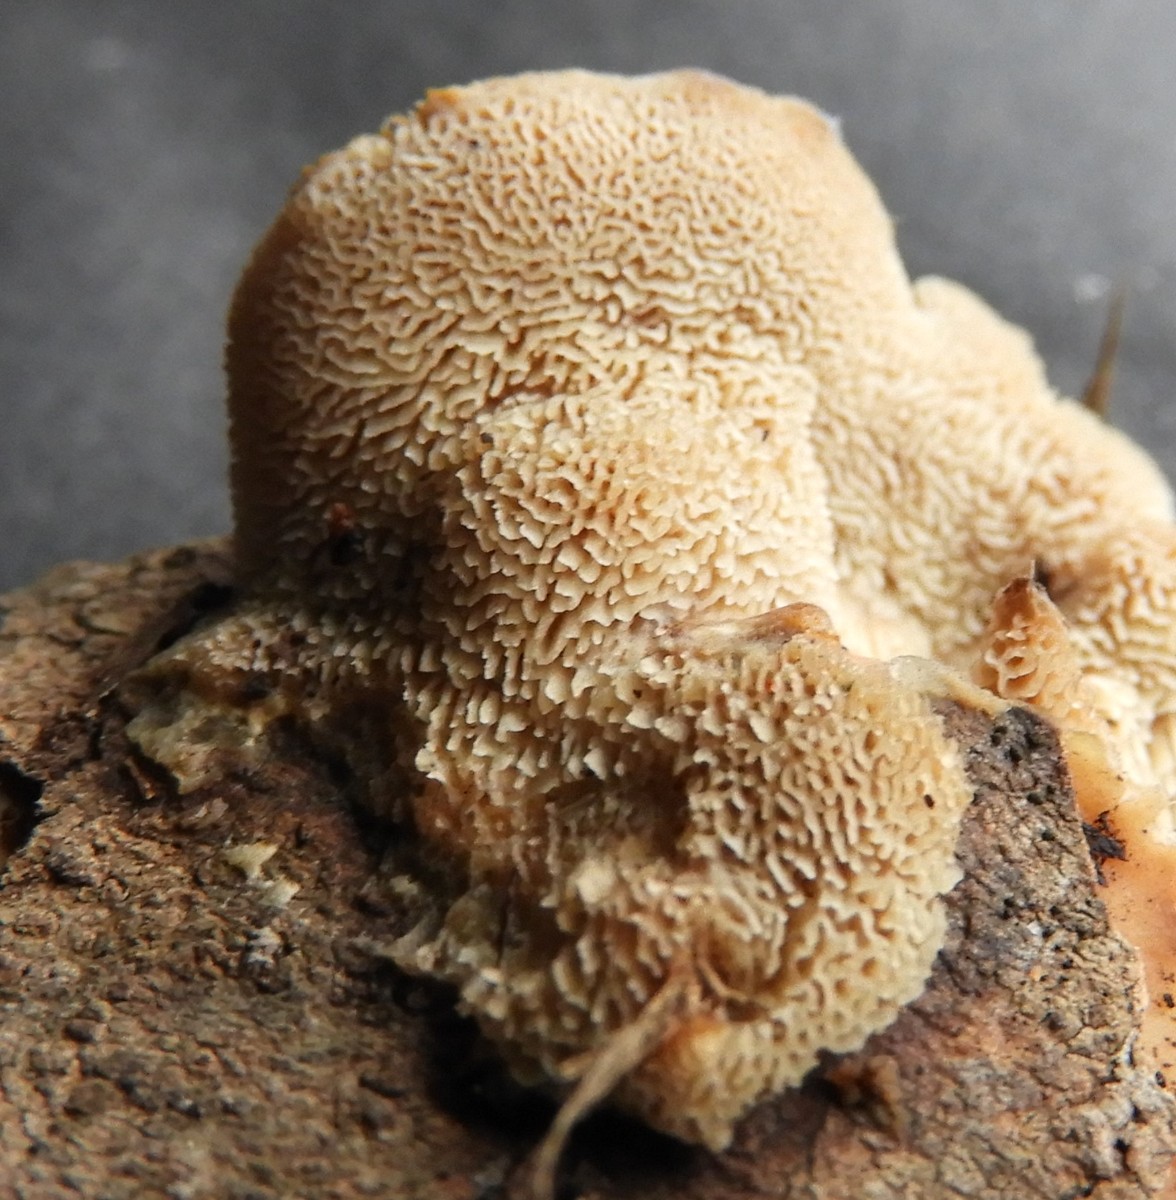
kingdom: Fungi
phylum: Basidiomycota
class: Agaricomycetes
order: Polyporales
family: Phanerochaetaceae
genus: Bjerkandera
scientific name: Bjerkandera fumosa
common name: grågul sodporesvamp
